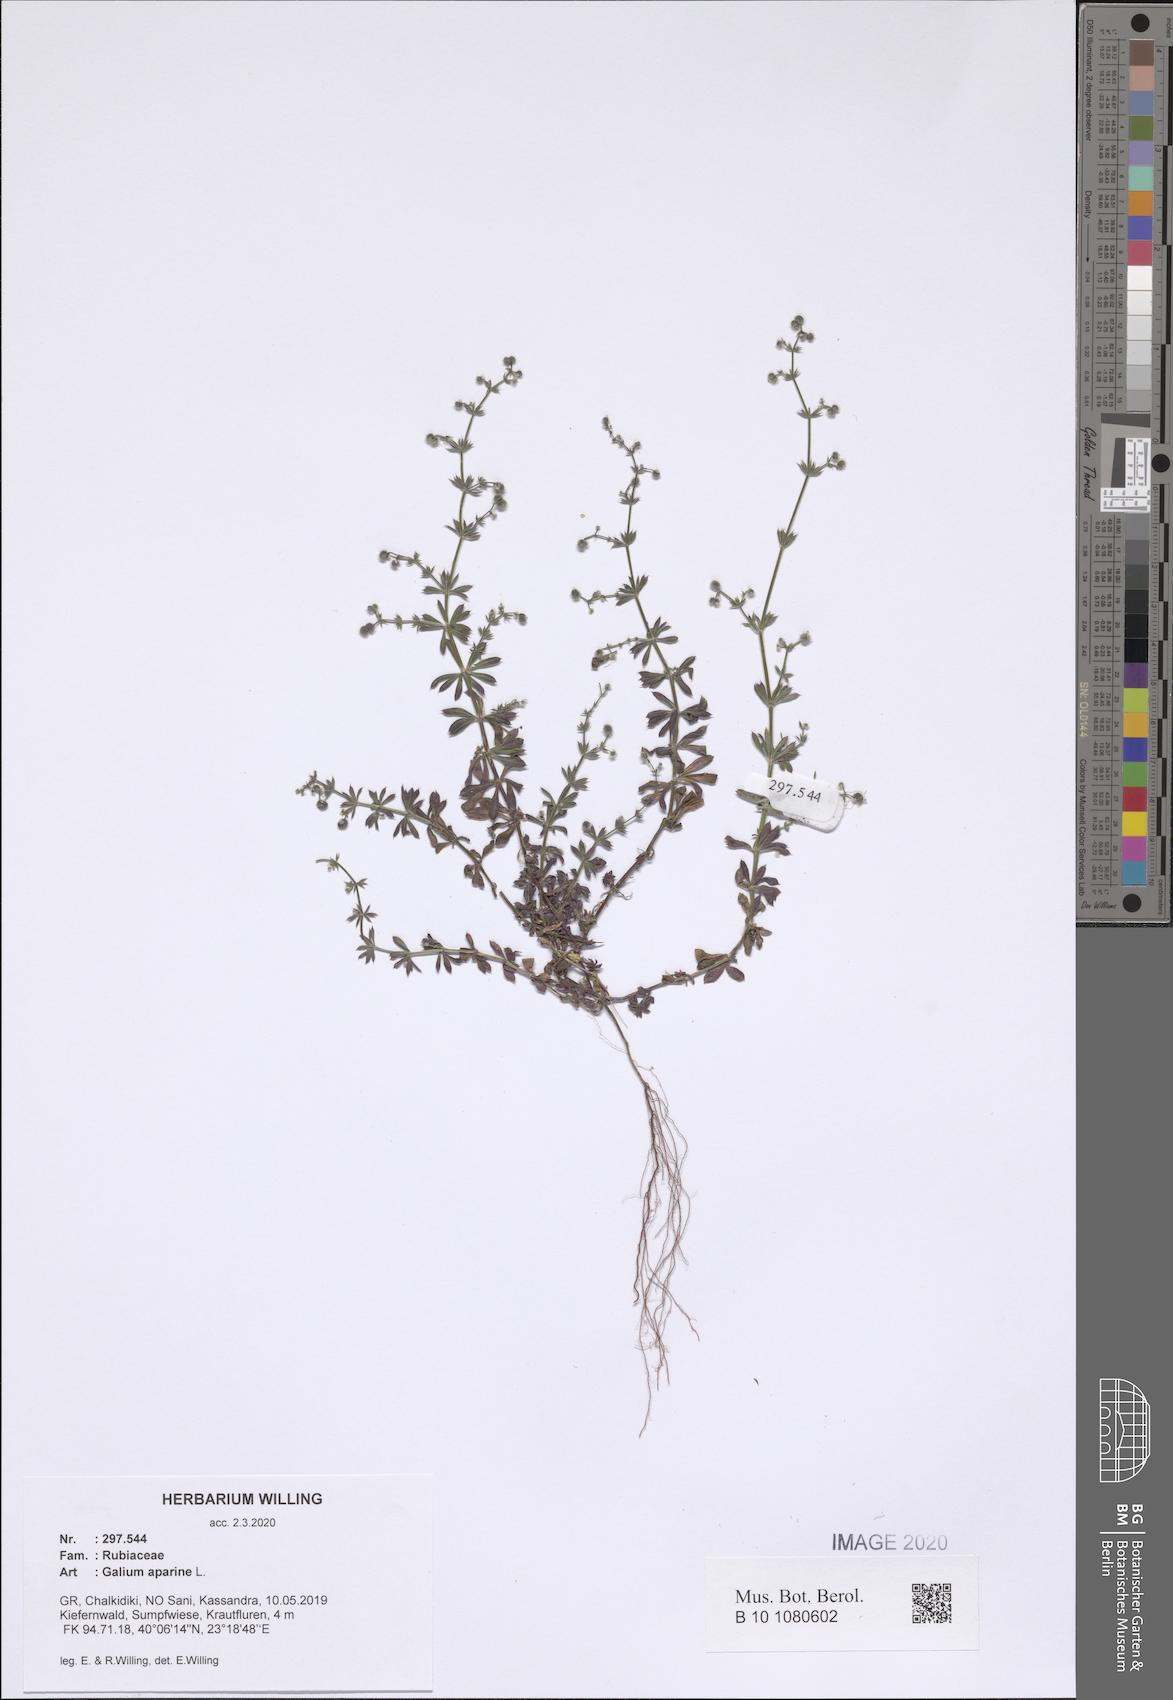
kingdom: Plantae
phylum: Tracheophyta
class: Magnoliopsida
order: Gentianales
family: Rubiaceae
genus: Galium
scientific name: Galium aparine
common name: Cleavers
